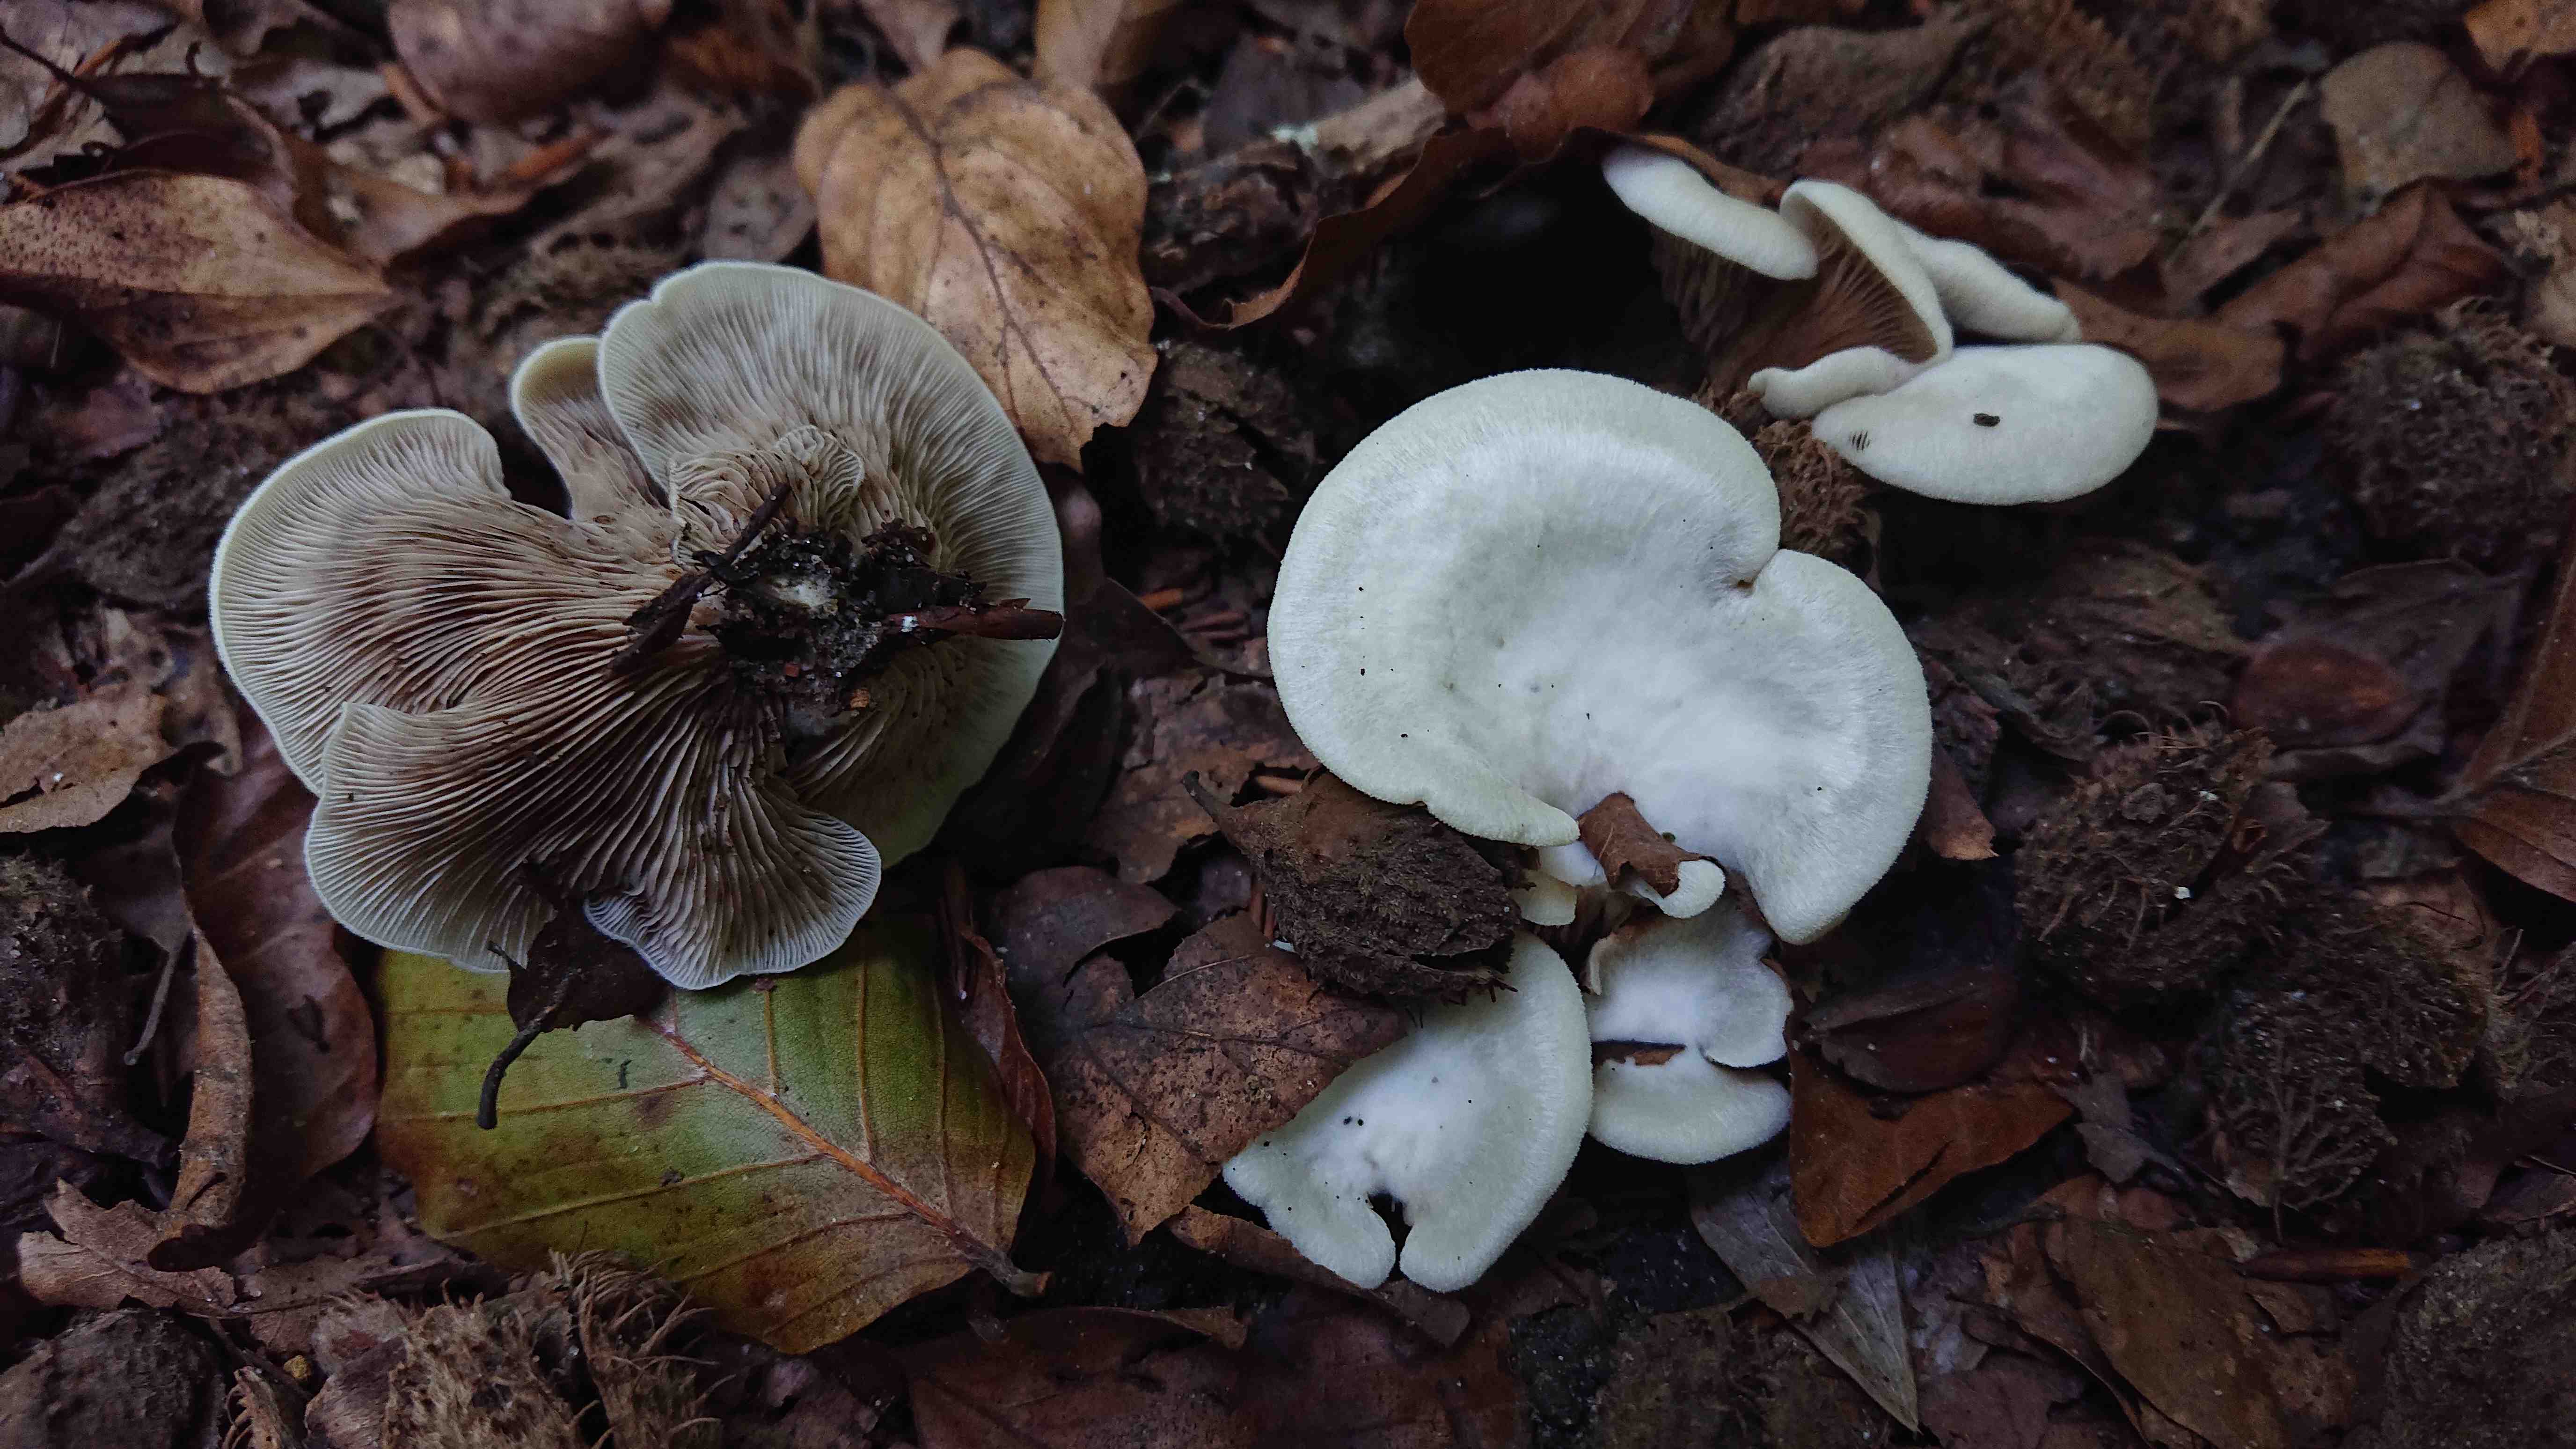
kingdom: Fungi
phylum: Basidiomycota
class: Agaricomycetes
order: Agaricales
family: Crepidotaceae
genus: Crepidotus
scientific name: Crepidotus autochthonus
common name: skæv muslingesvamp
